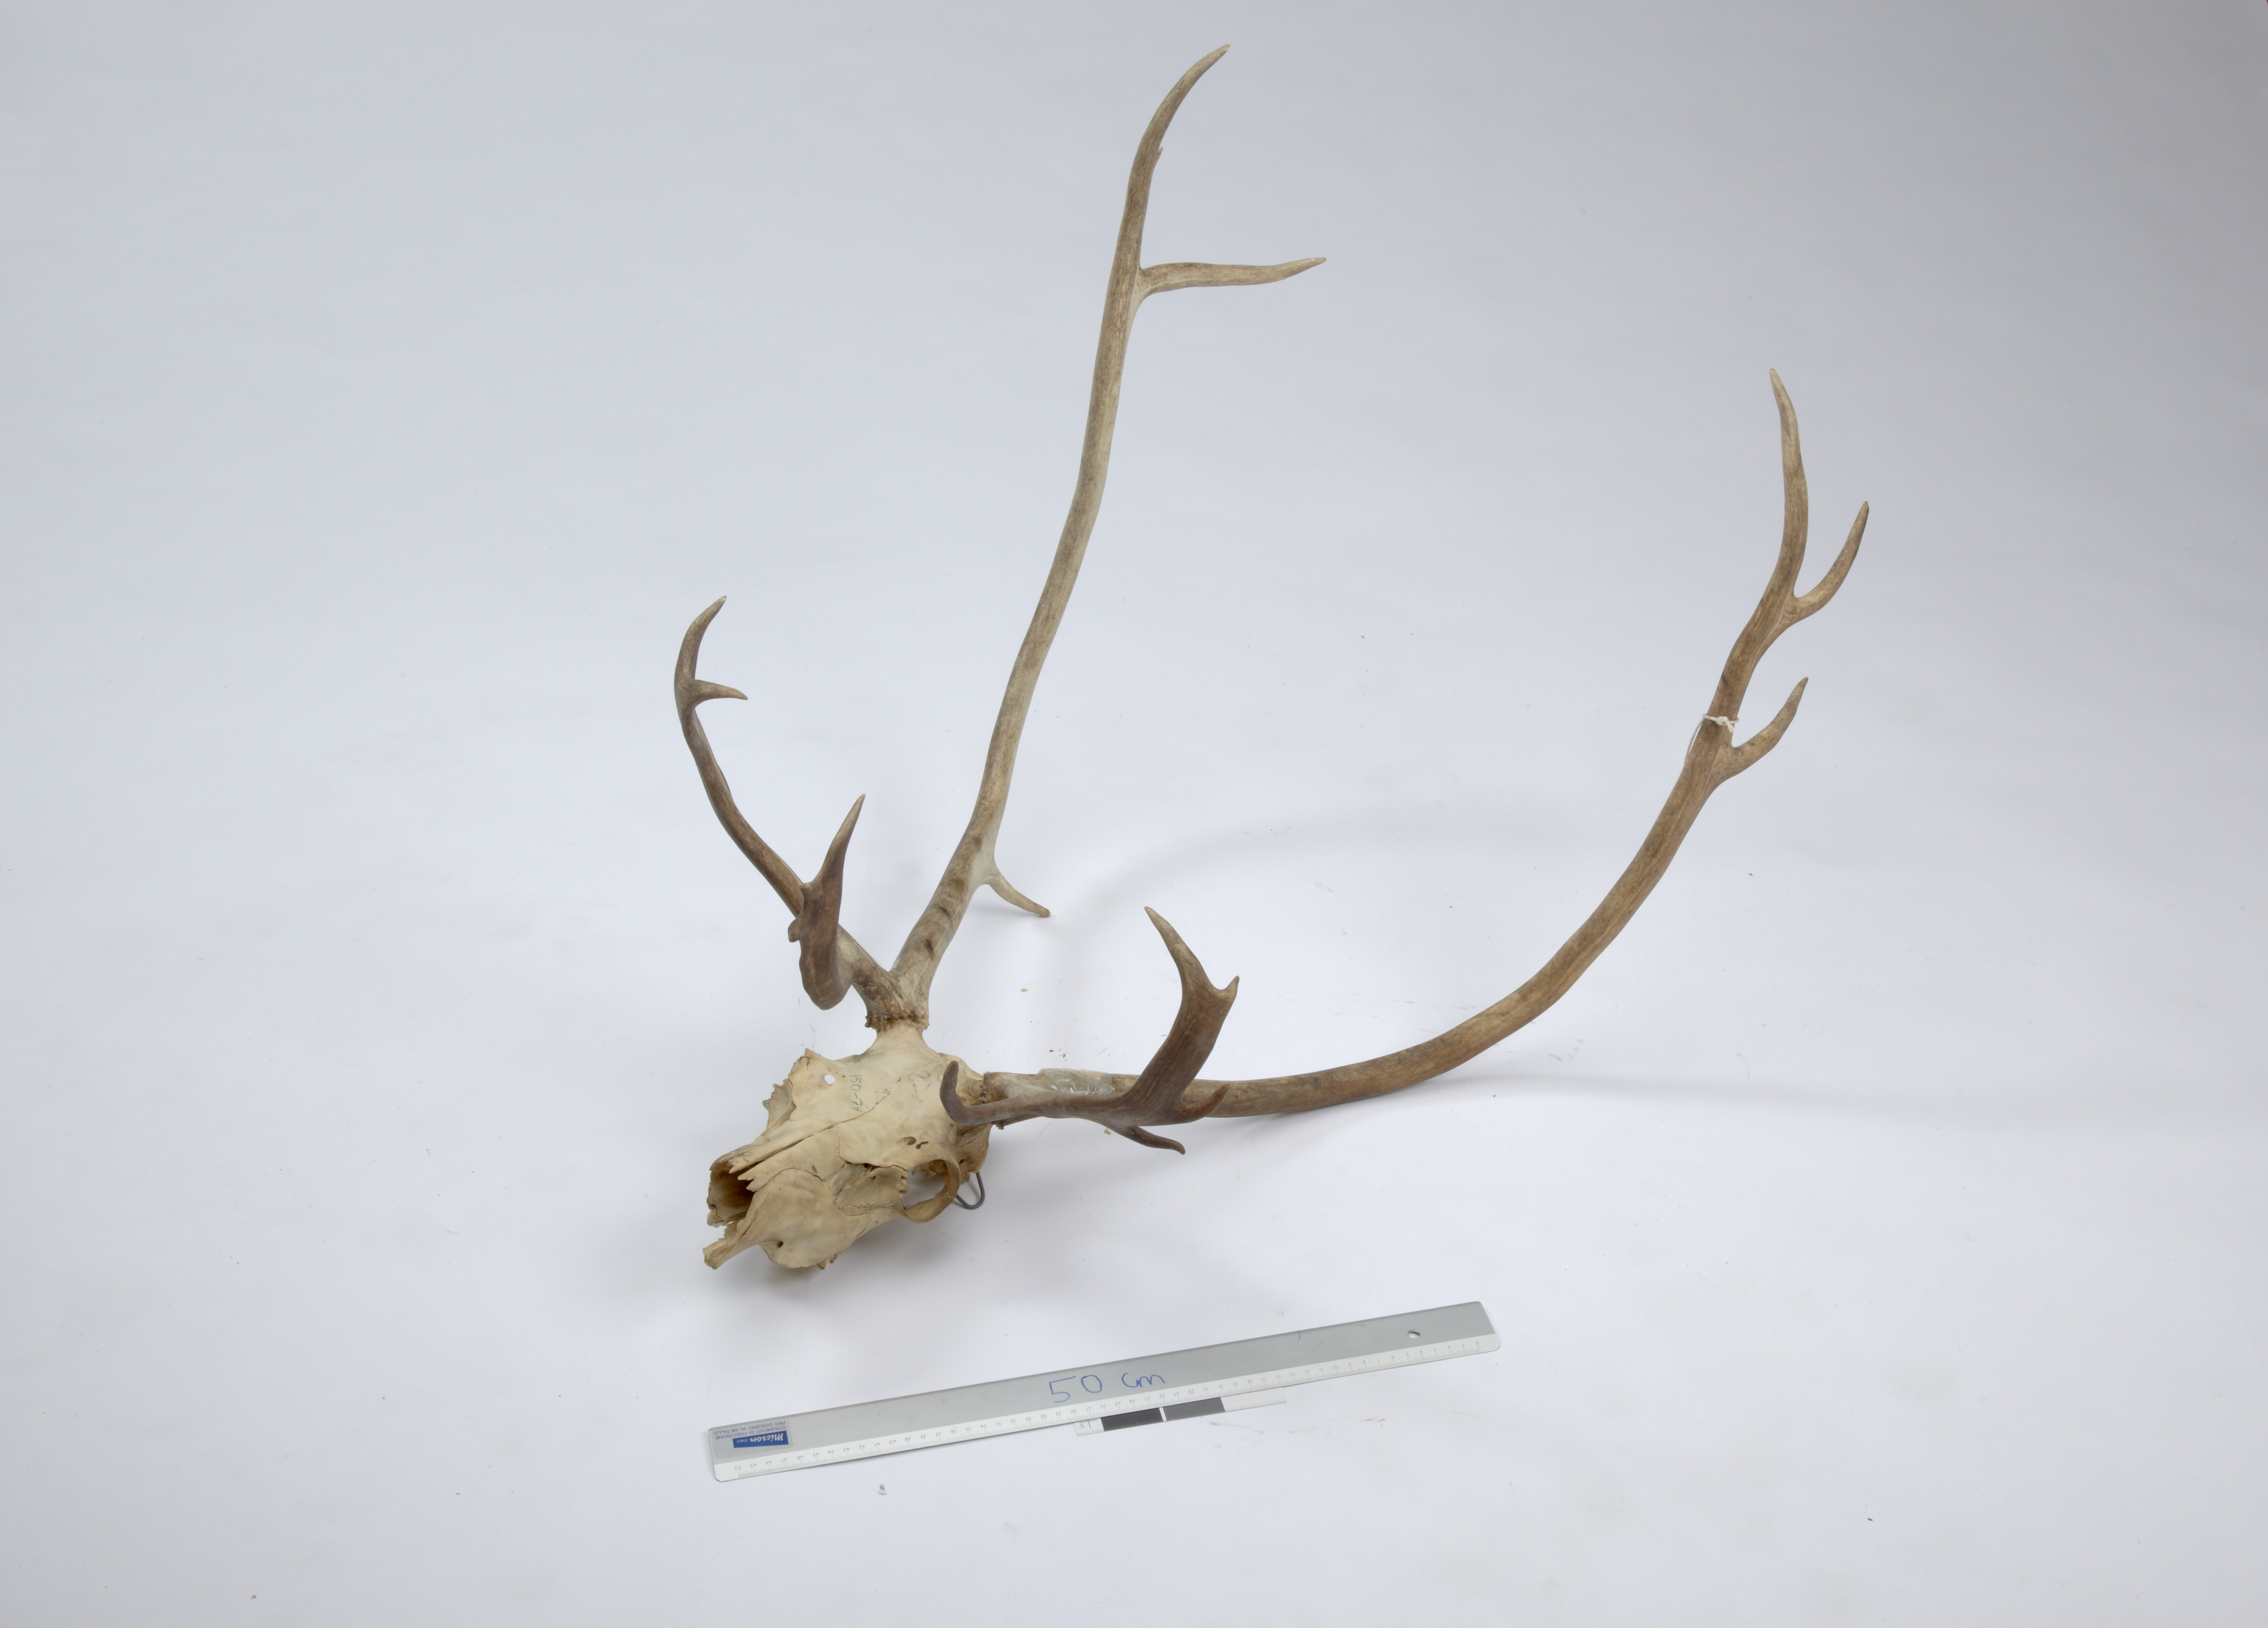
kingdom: Animalia
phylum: Chordata
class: Mammalia
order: Artiodactyla
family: Cervidae
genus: Rangifer
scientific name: Rangifer tarandus
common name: Reindeer
